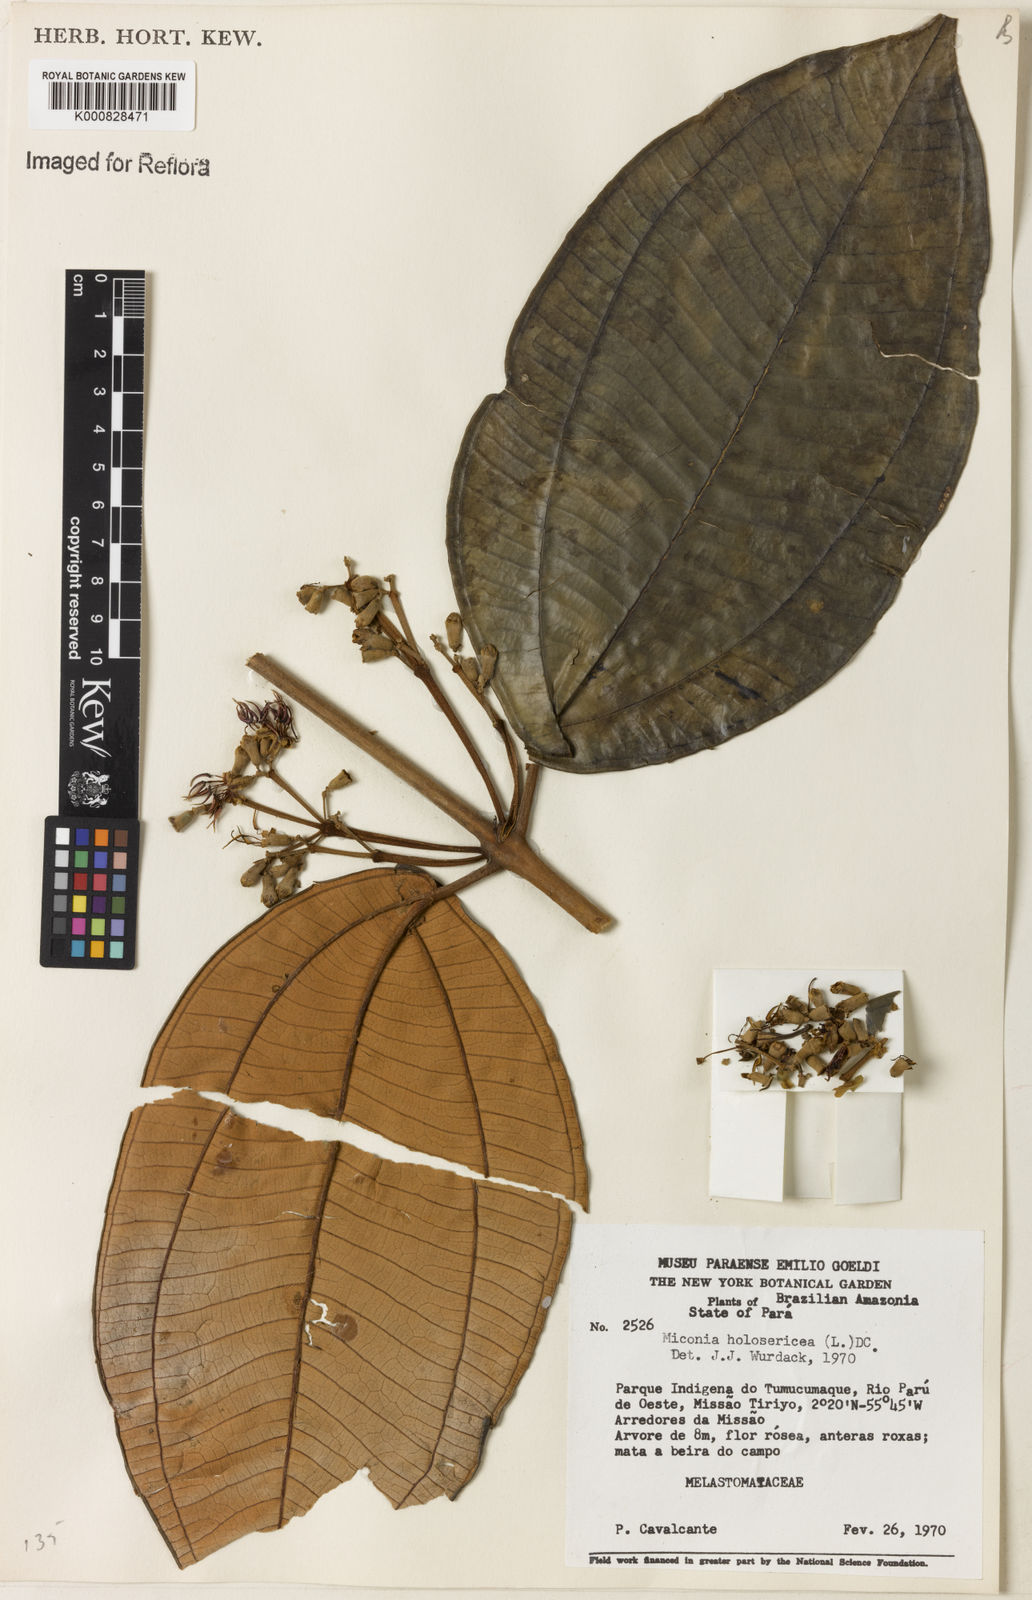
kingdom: Plantae
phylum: Tracheophyta
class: Magnoliopsida
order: Myrtales
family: Melastomataceae
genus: Miconia
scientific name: Miconia holosericea
